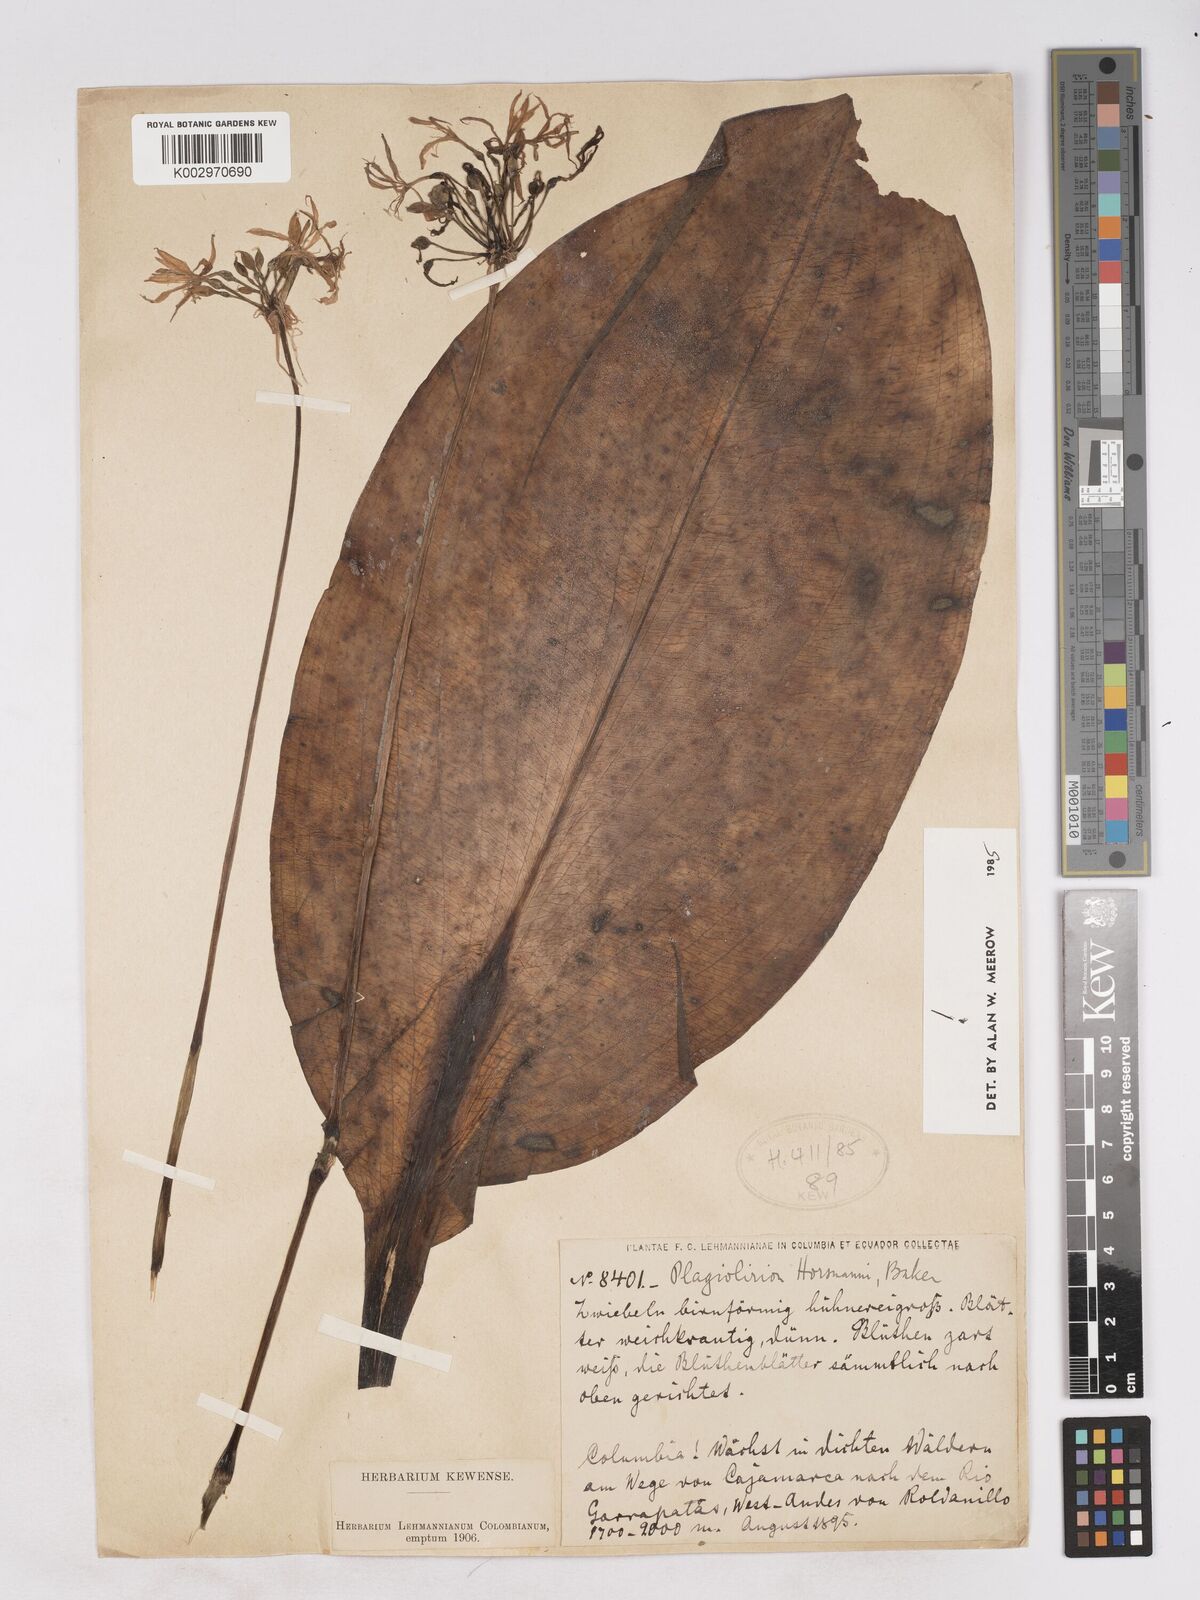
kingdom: Plantae
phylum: Tracheophyta
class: Liliopsida
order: Asparagales
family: Amaryllidaceae
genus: Plagiolirion
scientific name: Plagiolirion horsmannii
